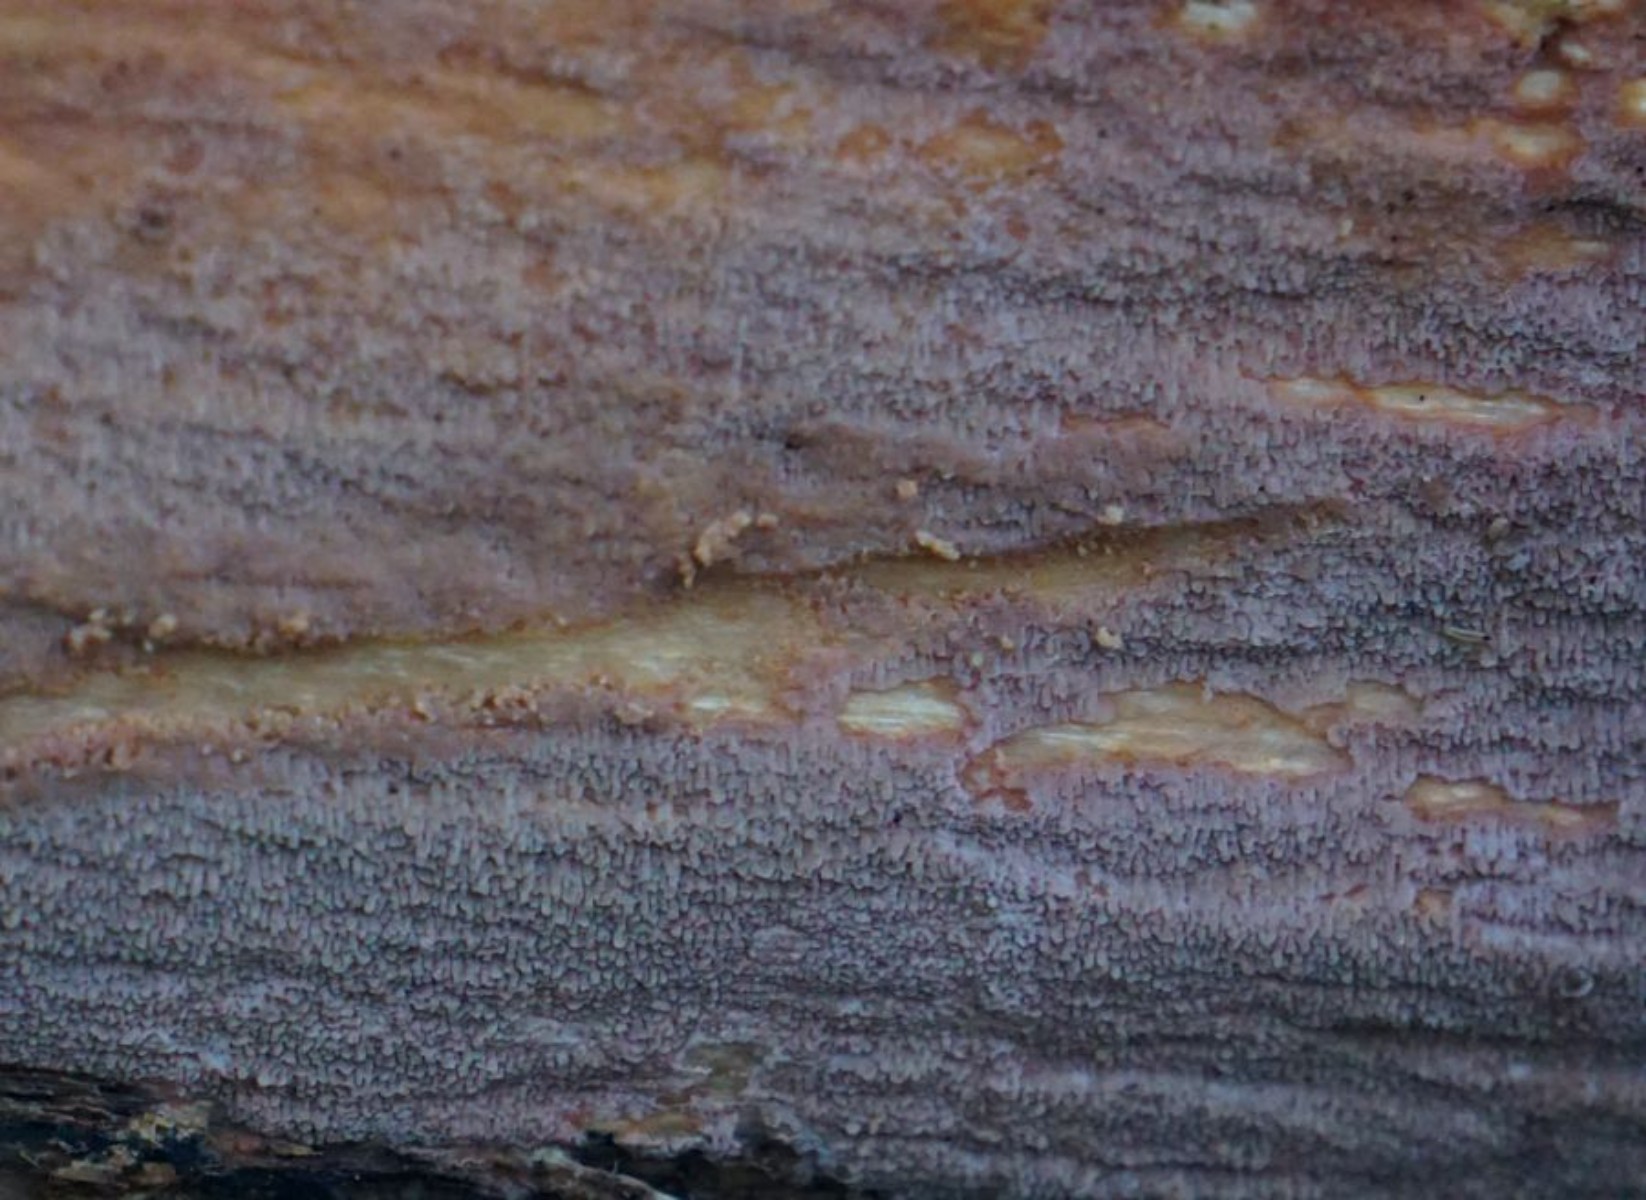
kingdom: Fungi
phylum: Basidiomycota
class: Agaricomycetes
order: Polyporales
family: Meruliaceae
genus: Phlebia
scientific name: Phlebia rufa
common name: ege-åresvamp
